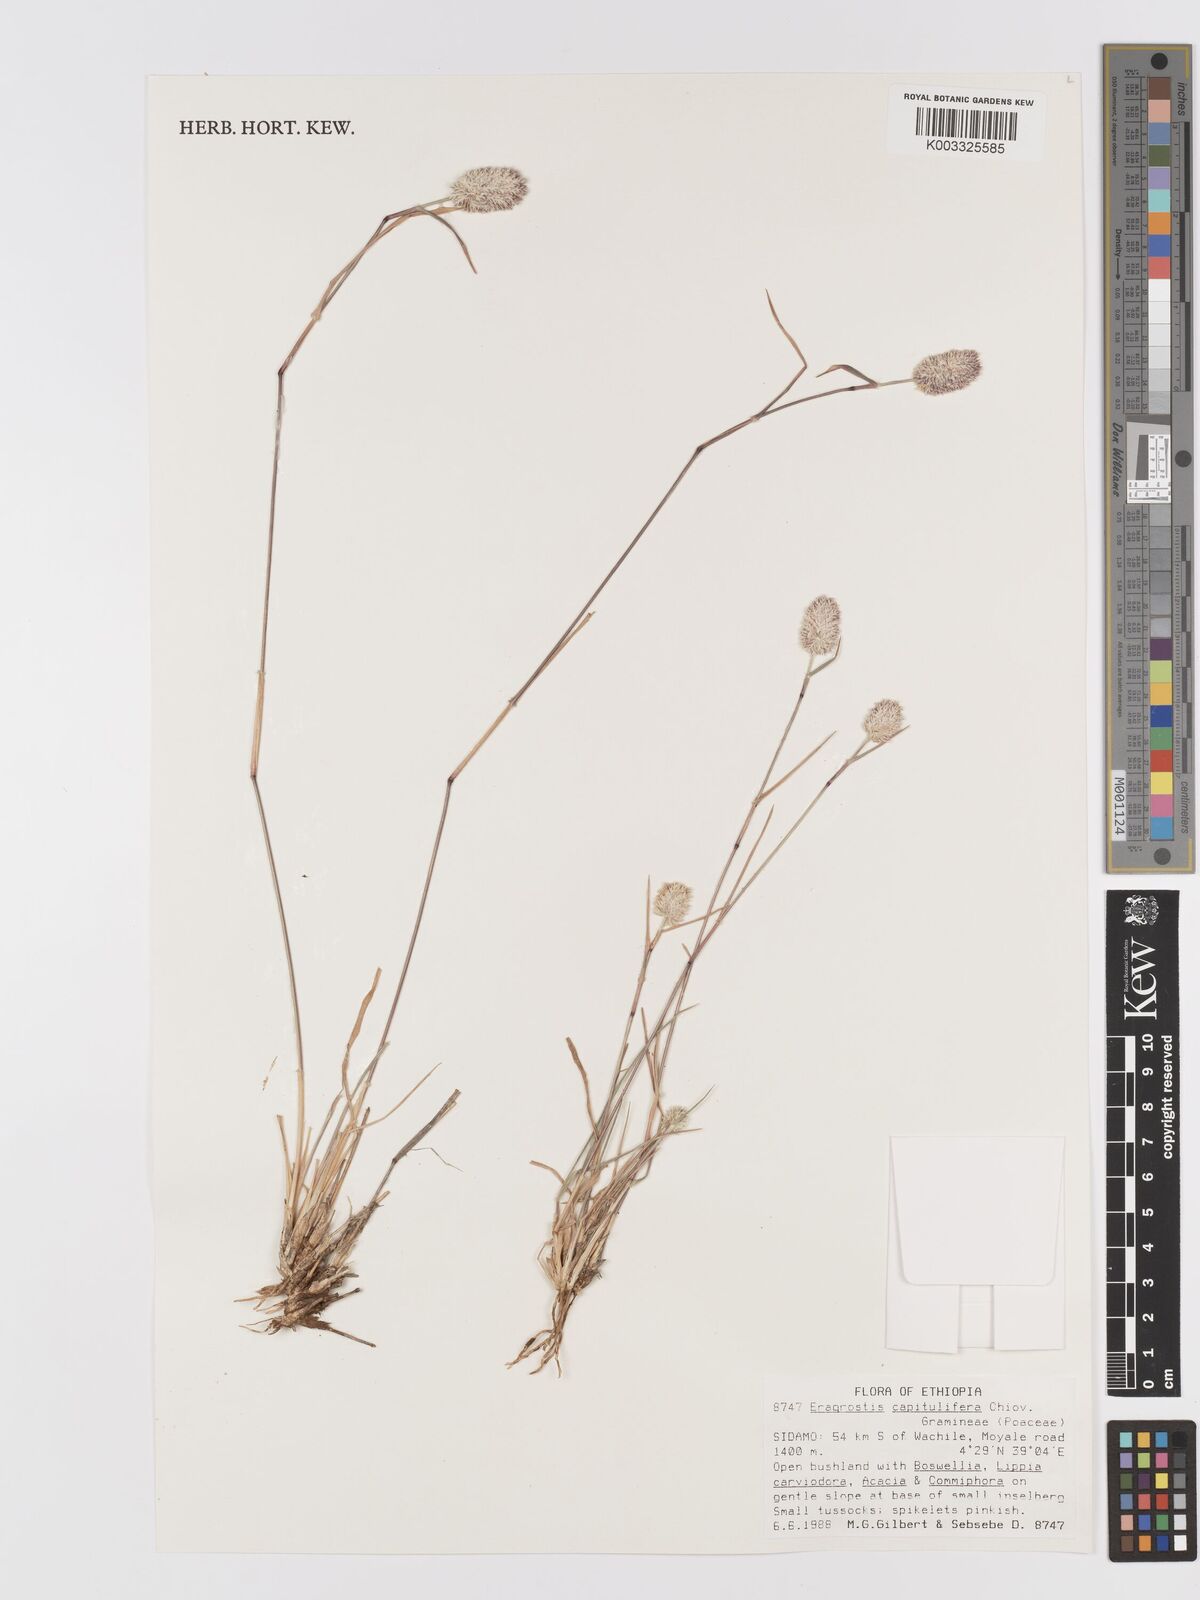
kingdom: Plantae
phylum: Tracheophyta
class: Liliopsida
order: Poales
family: Poaceae
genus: Eragrostis
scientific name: Eragrostis capitulifera
